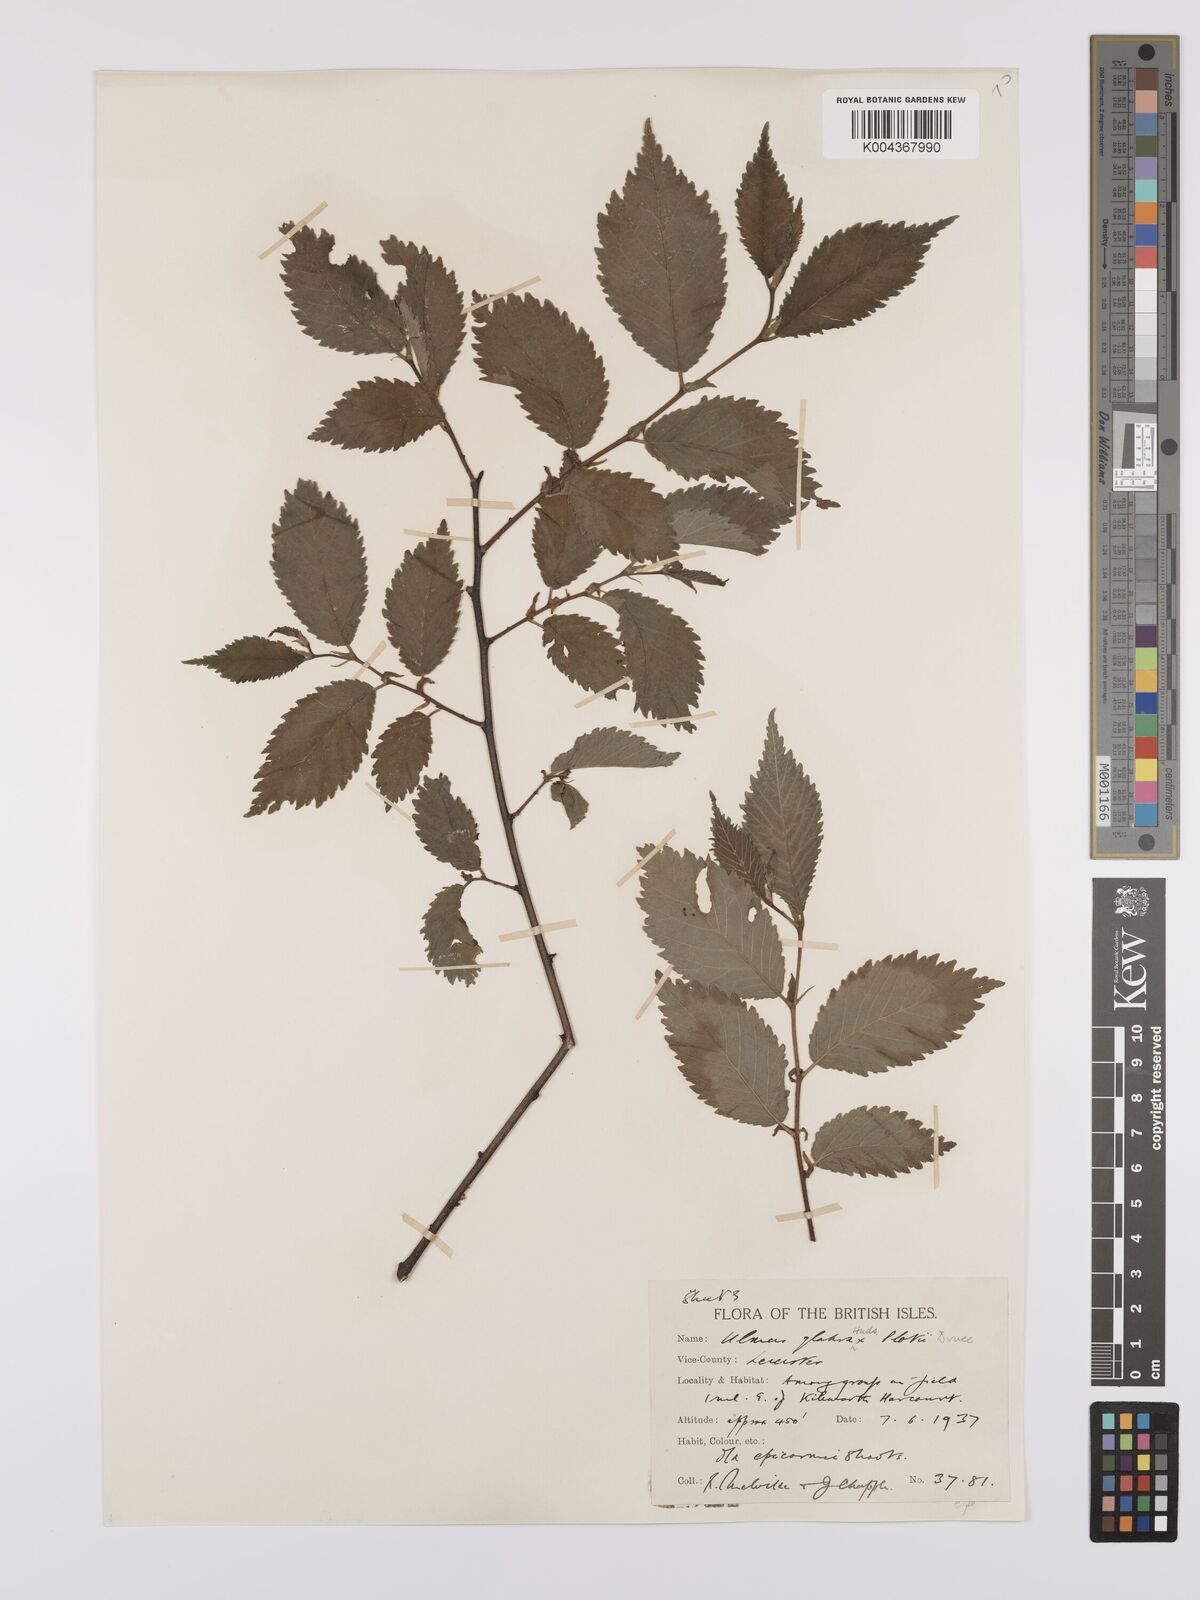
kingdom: Plantae
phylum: Tracheophyta
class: Magnoliopsida
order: Rosales
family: Ulmaceae
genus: Ulmus
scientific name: Ulmus
